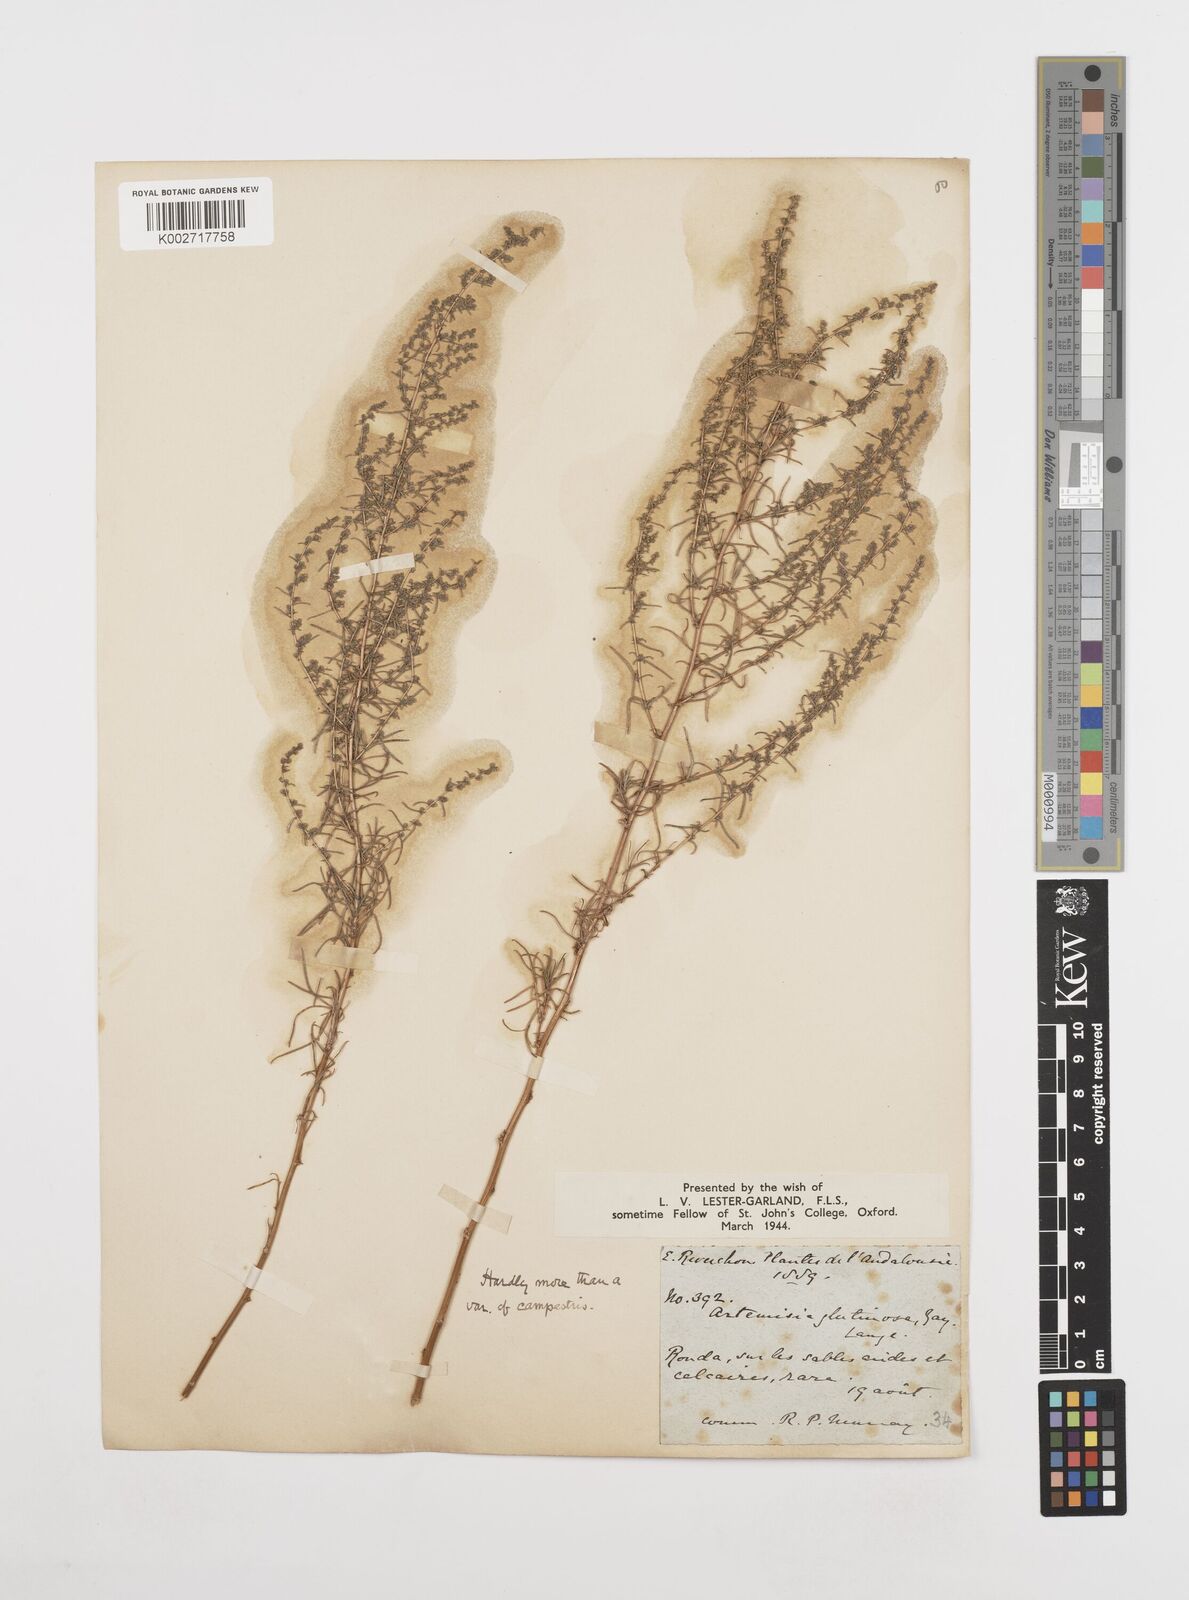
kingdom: Plantae
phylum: Tracheophyta
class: Magnoliopsida
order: Asterales
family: Asteraceae
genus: Artemisia
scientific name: Artemisia campestris
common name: Field wormwood
